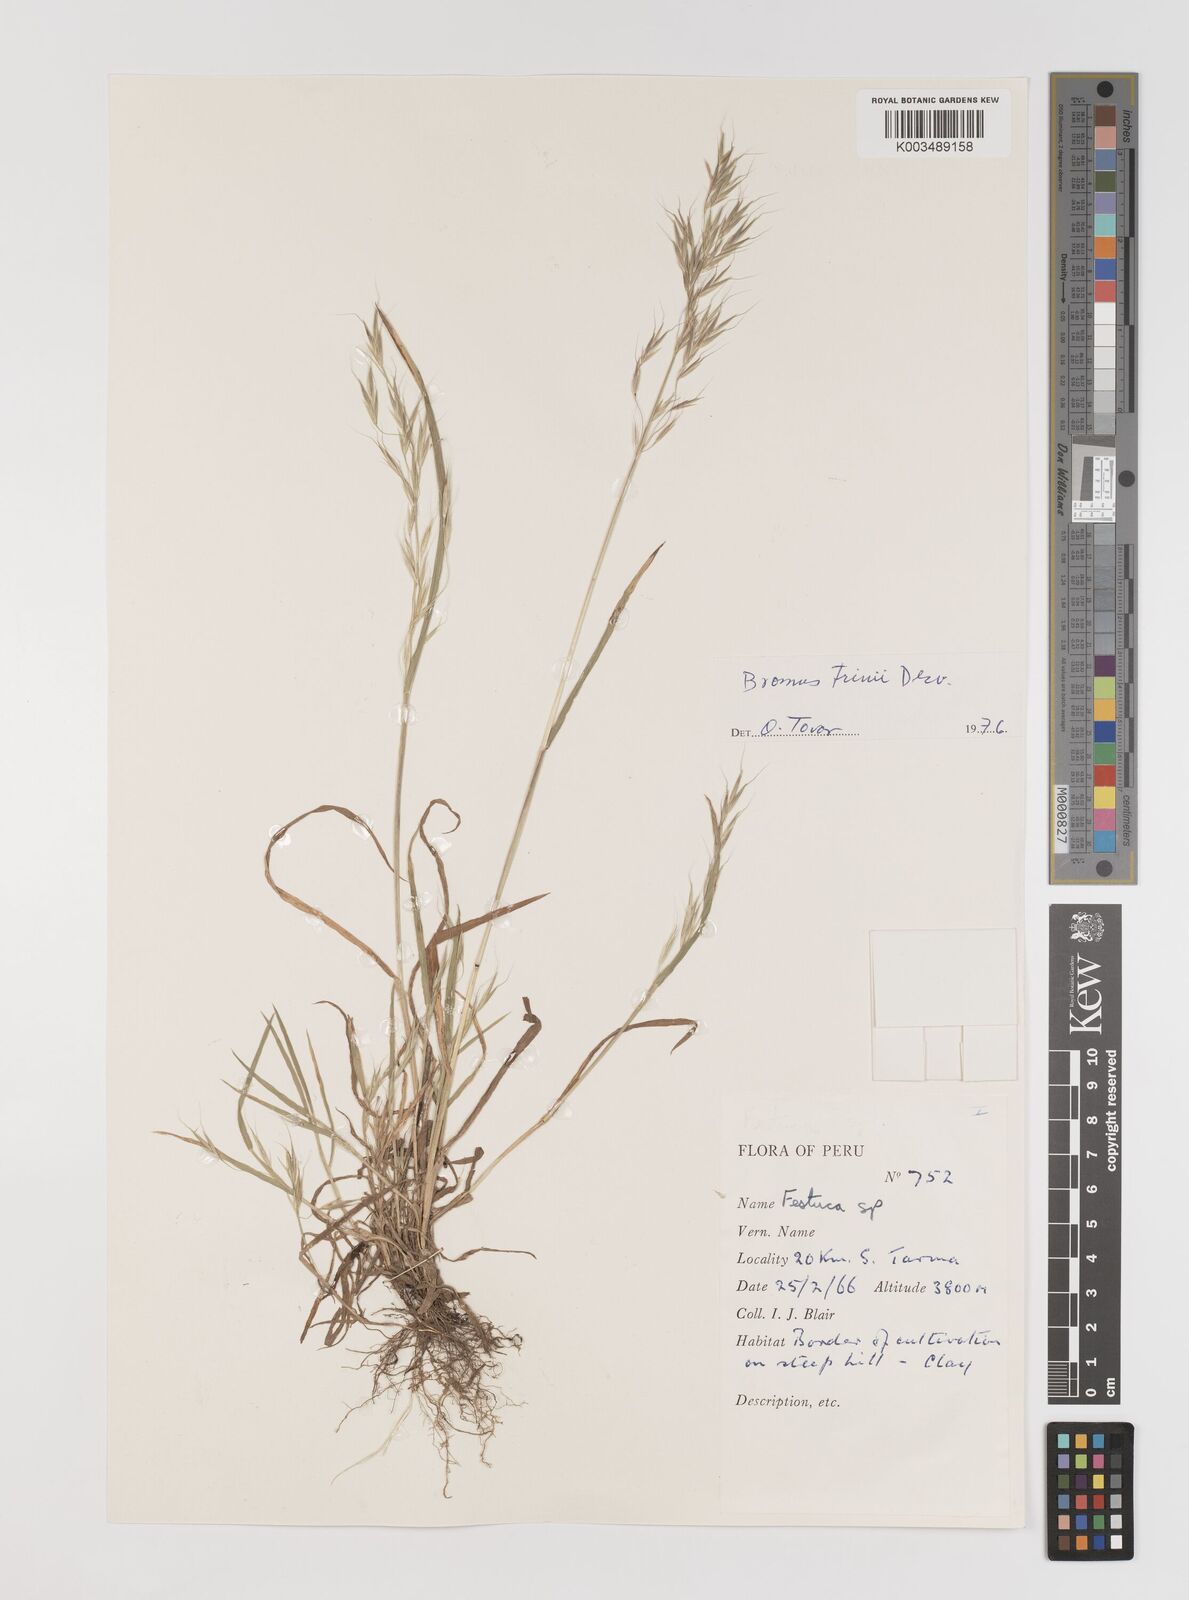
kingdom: Plantae
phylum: Tracheophyta
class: Liliopsida
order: Poales
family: Poaceae
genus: Bromus
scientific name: Bromus berteroanus
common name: Chilean chess
